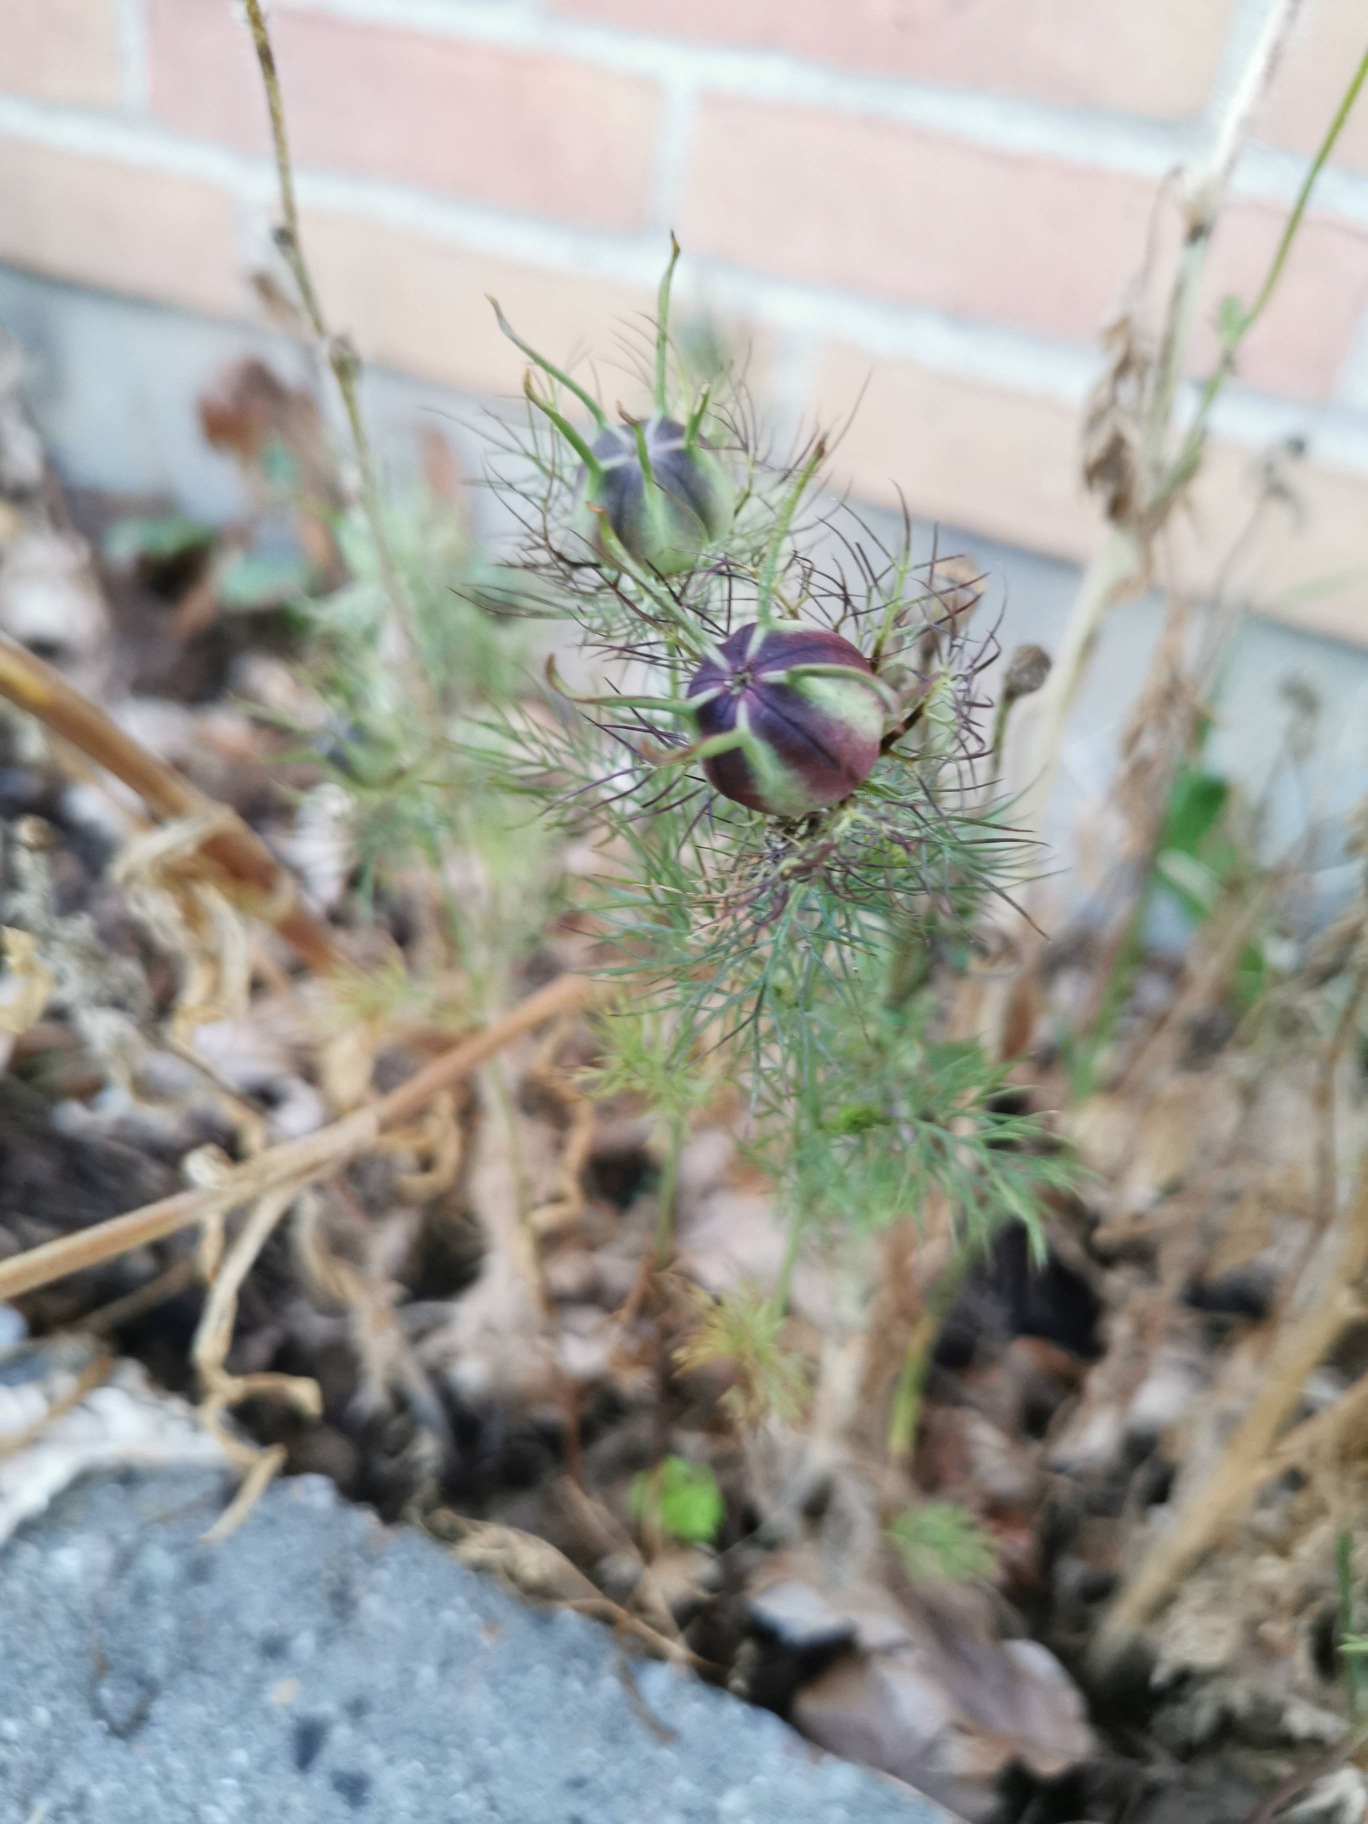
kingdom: Plantae
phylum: Tracheophyta
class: Magnoliopsida
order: Ranunculales
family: Ranunculaceae
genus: Nigella
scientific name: Nigella damascena
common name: Jomfru i det grønne
